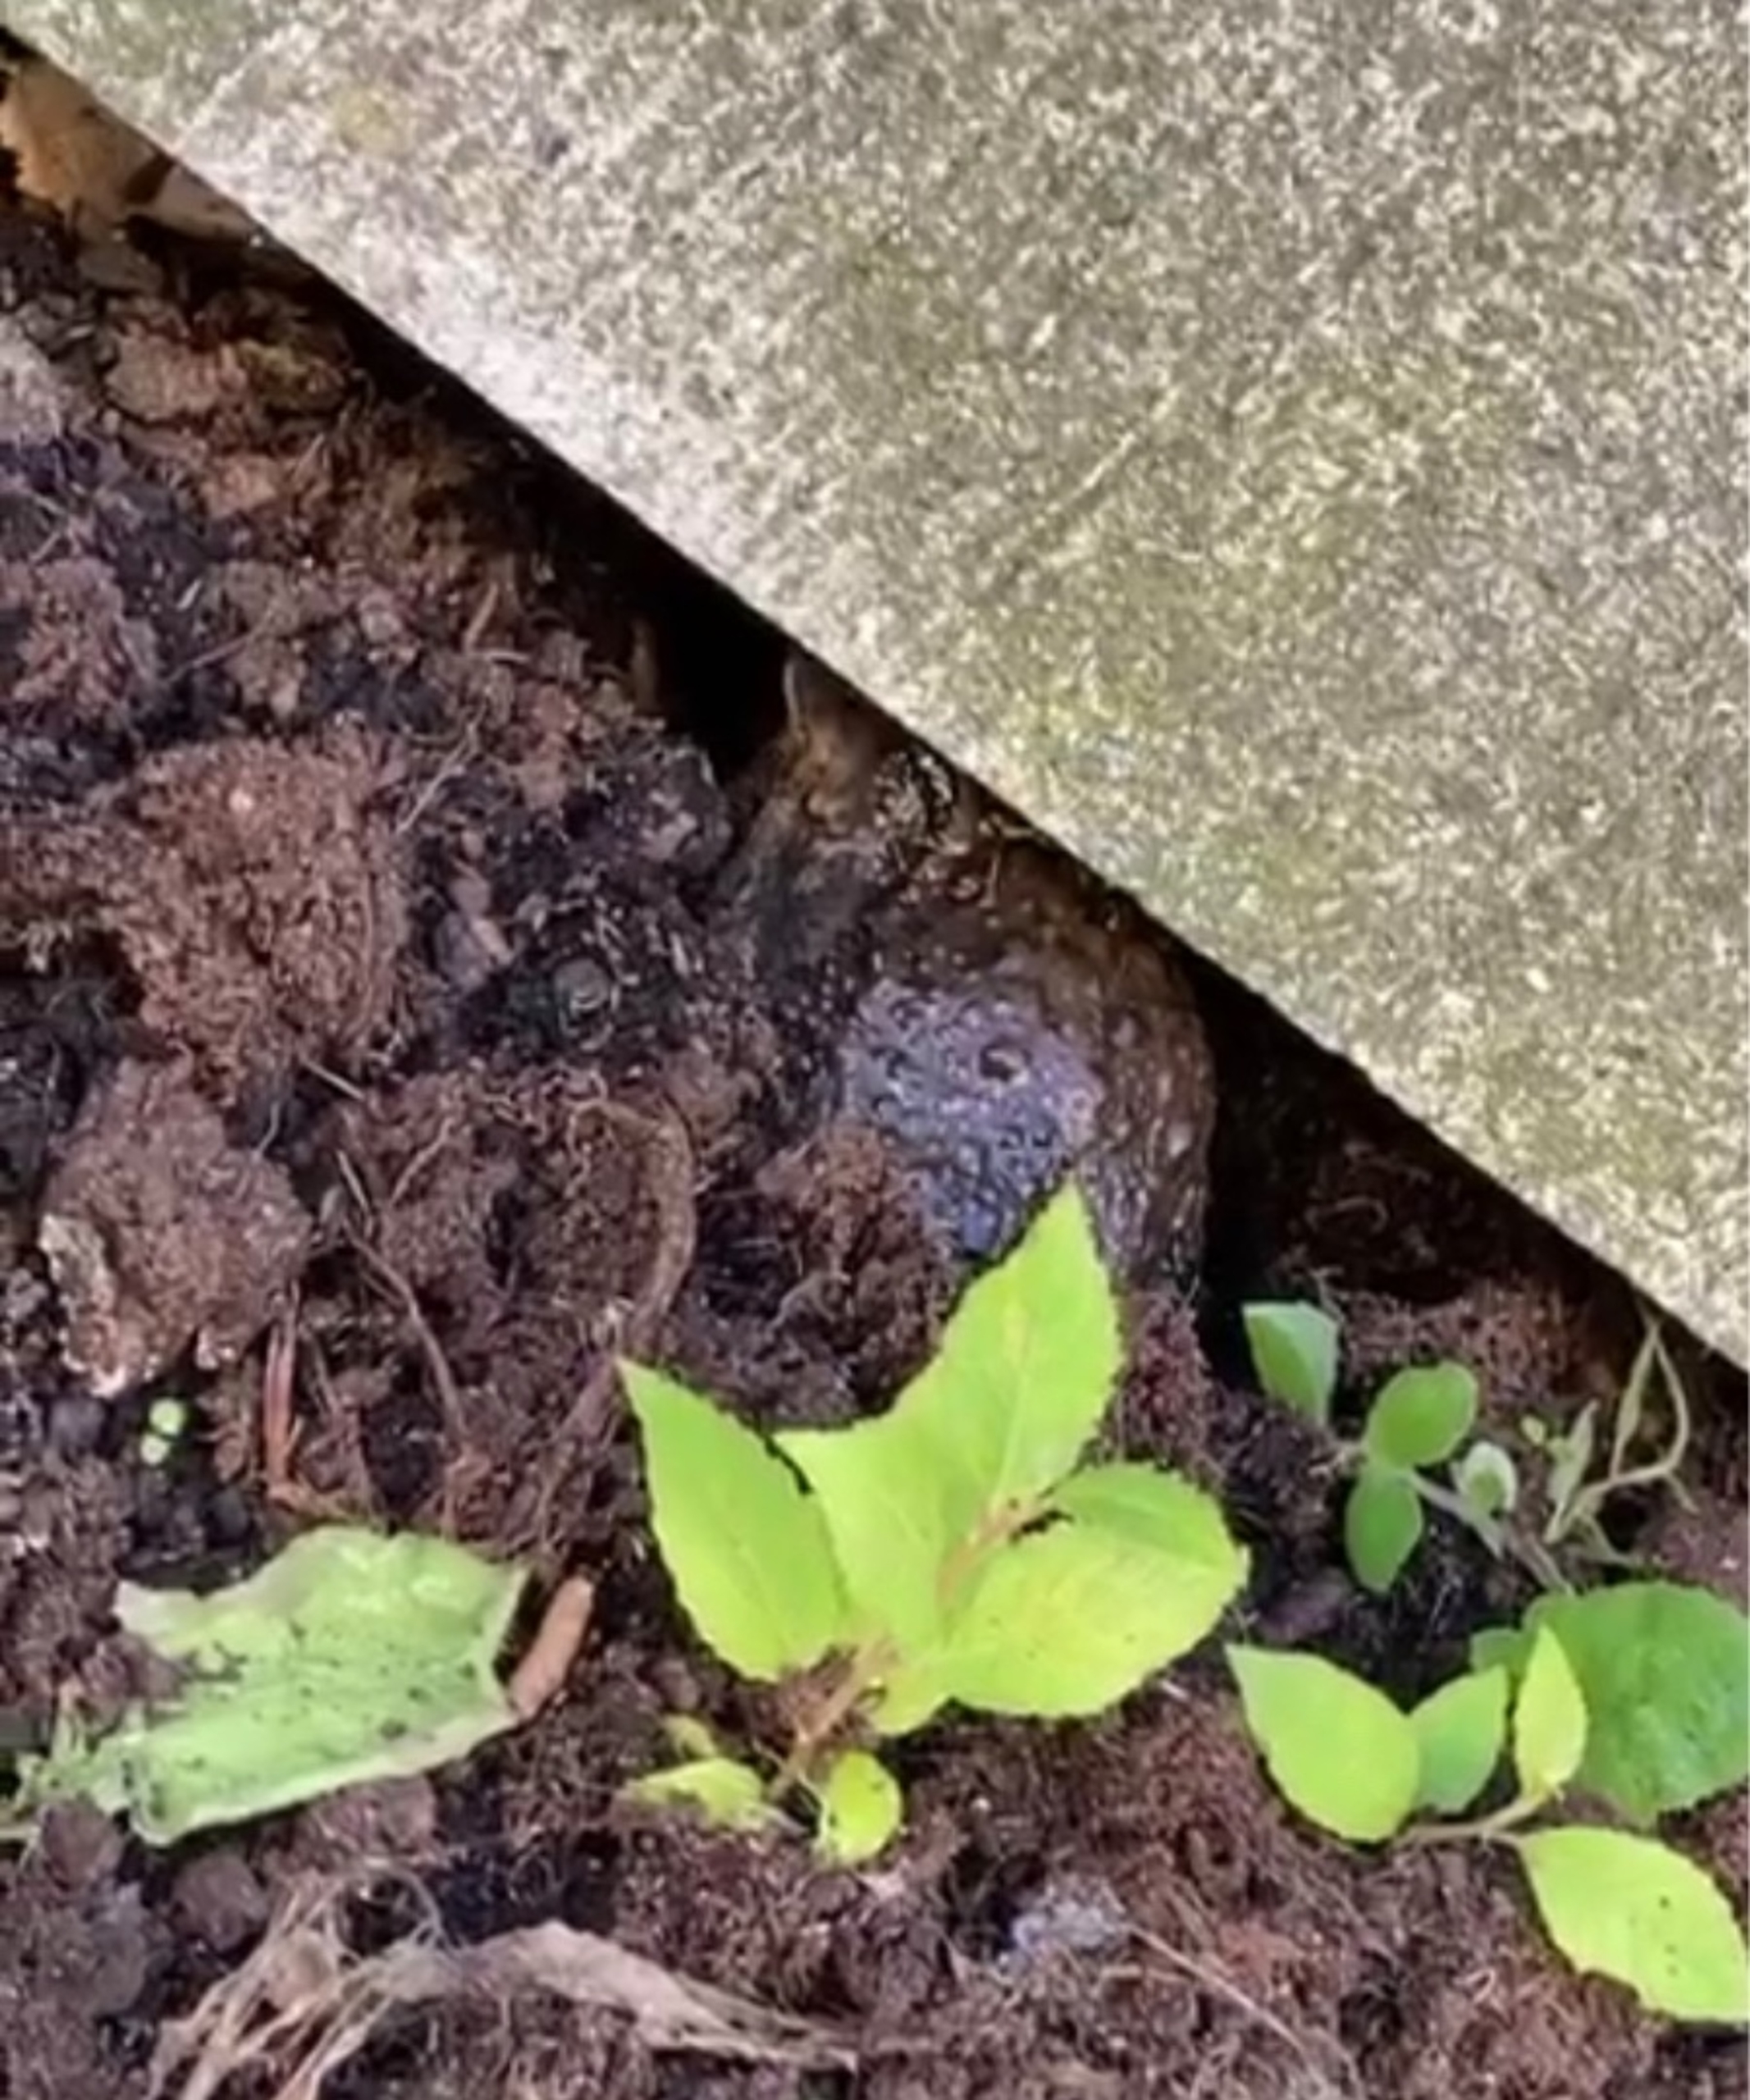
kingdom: Animalia
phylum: Chordata
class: Amphibia
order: Anura
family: Bufonidae
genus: Bufo
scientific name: Bufo bufo
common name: Skrubtudse
